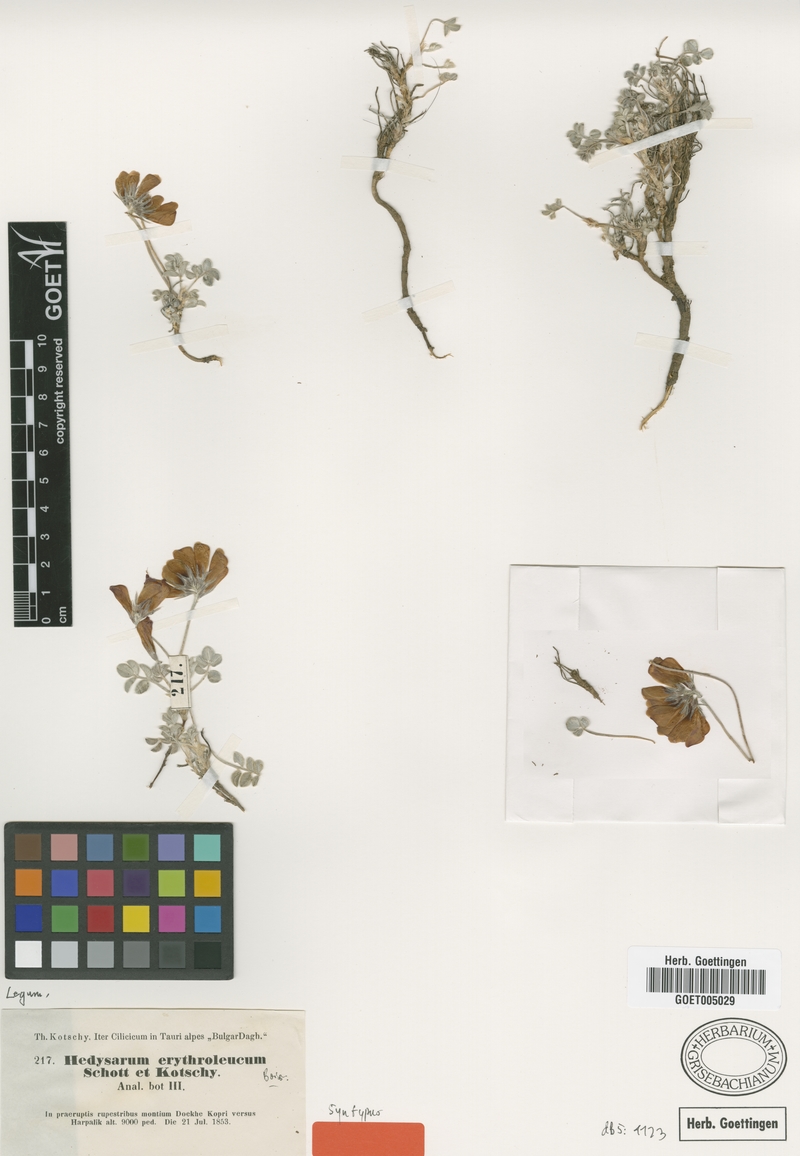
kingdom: Plantae
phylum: Tracheophyta
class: Magnoliopsida
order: Fabales
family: Fabaceae
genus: Hedysarum
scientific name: Hedysarum erythroleucum
